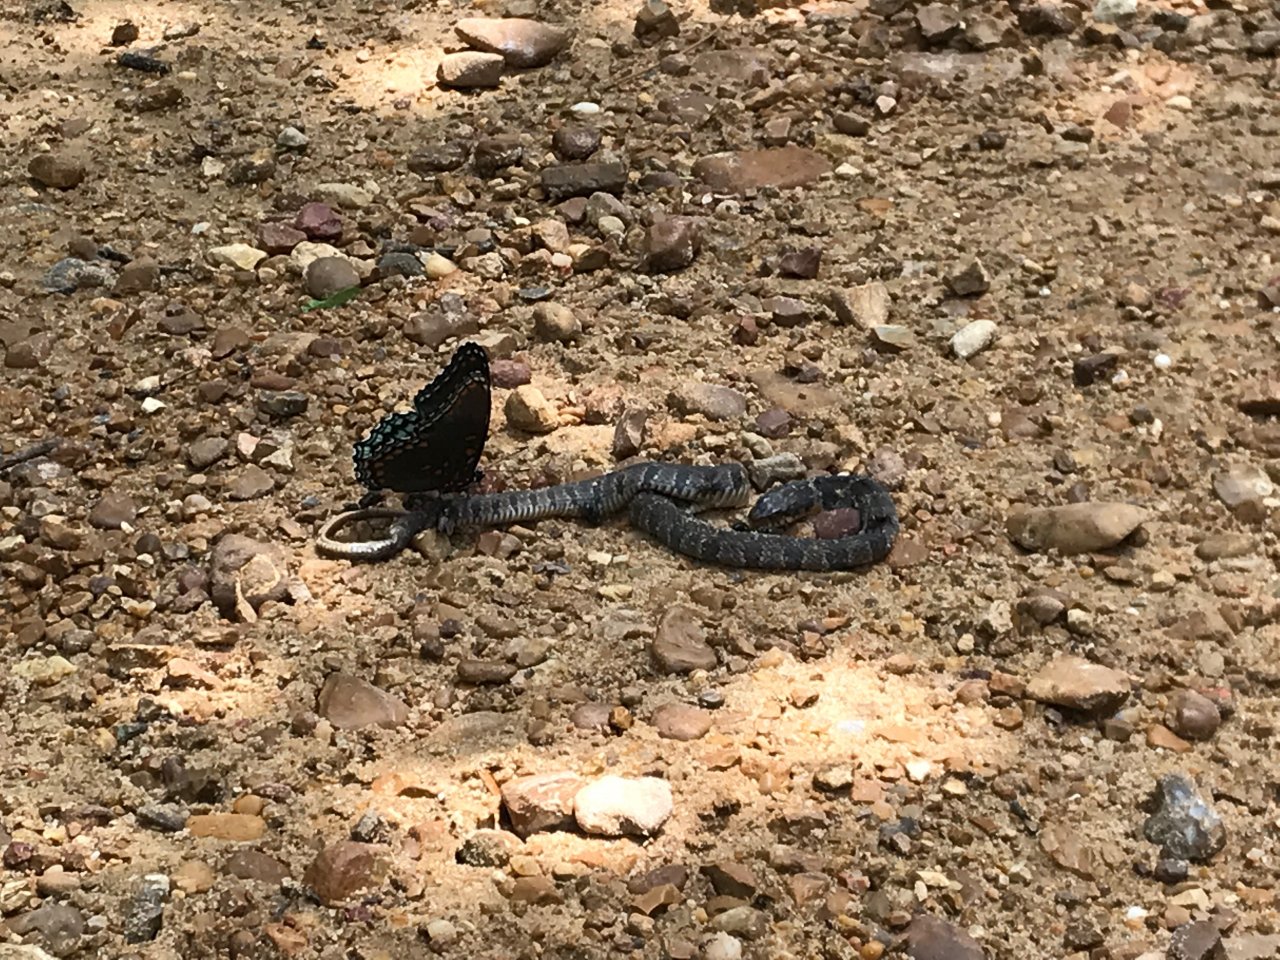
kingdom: Animalia
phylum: Arthropoda
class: Insecta
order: Lepidoptera
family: Nymphalidae
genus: Limenitis
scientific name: Limenitis astyanax
